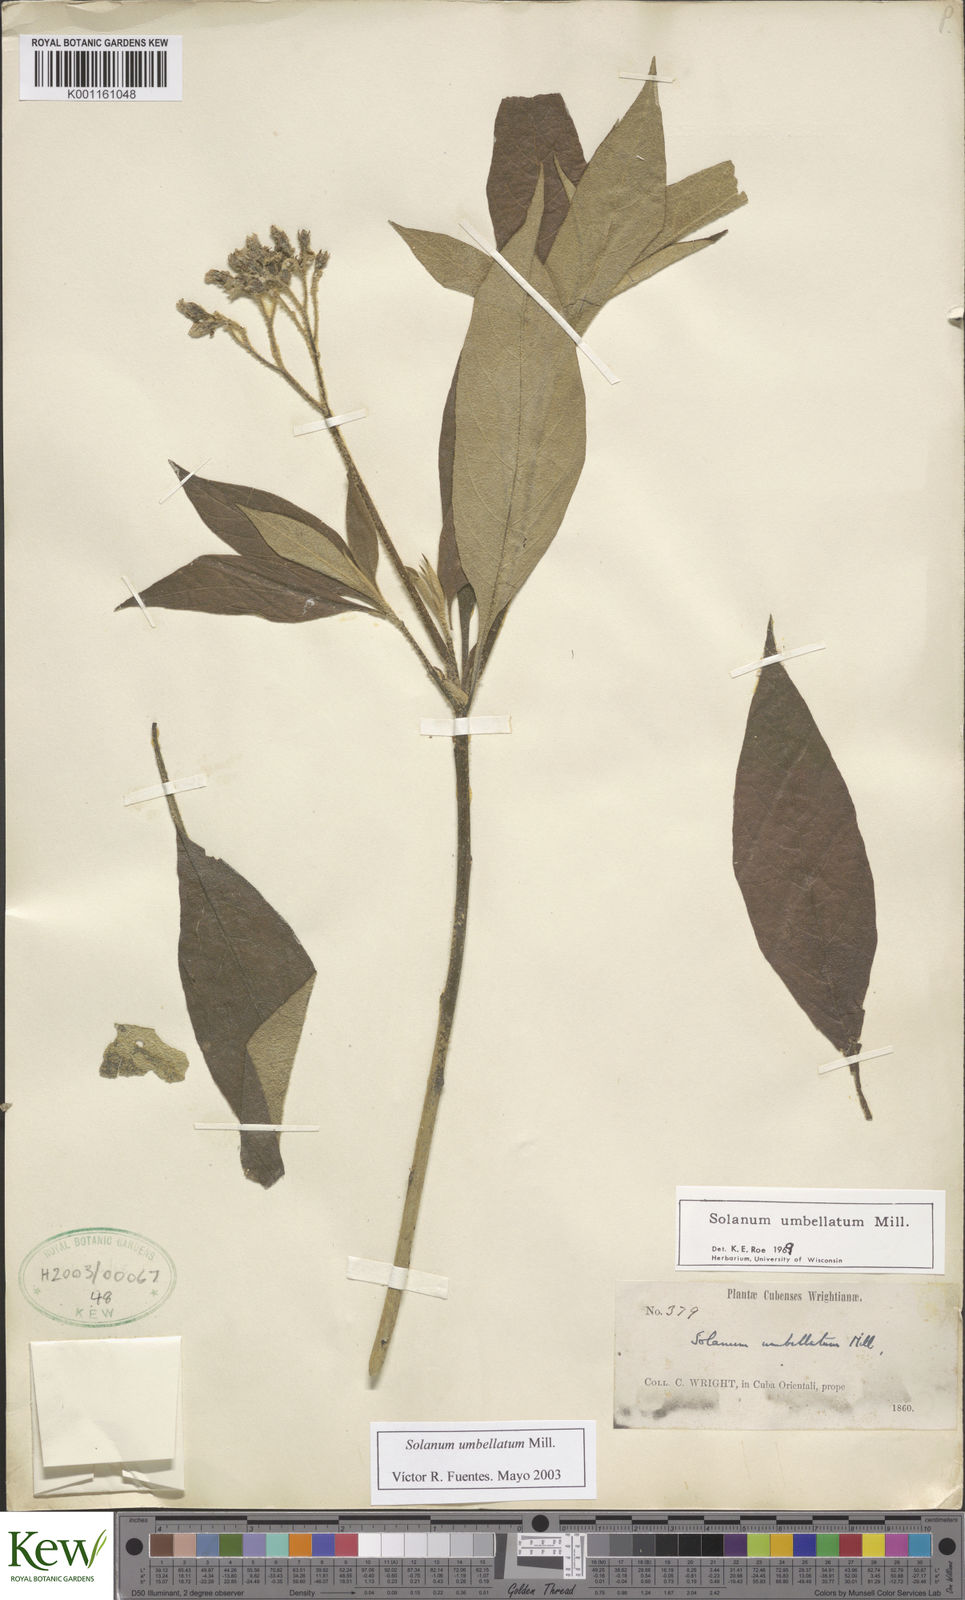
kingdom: Plantae
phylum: Tracheophyta
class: Magnoliopsida
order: Solanales
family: Solanaceae
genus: Solanum
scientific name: Solanum umbellatum
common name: Nightshade
